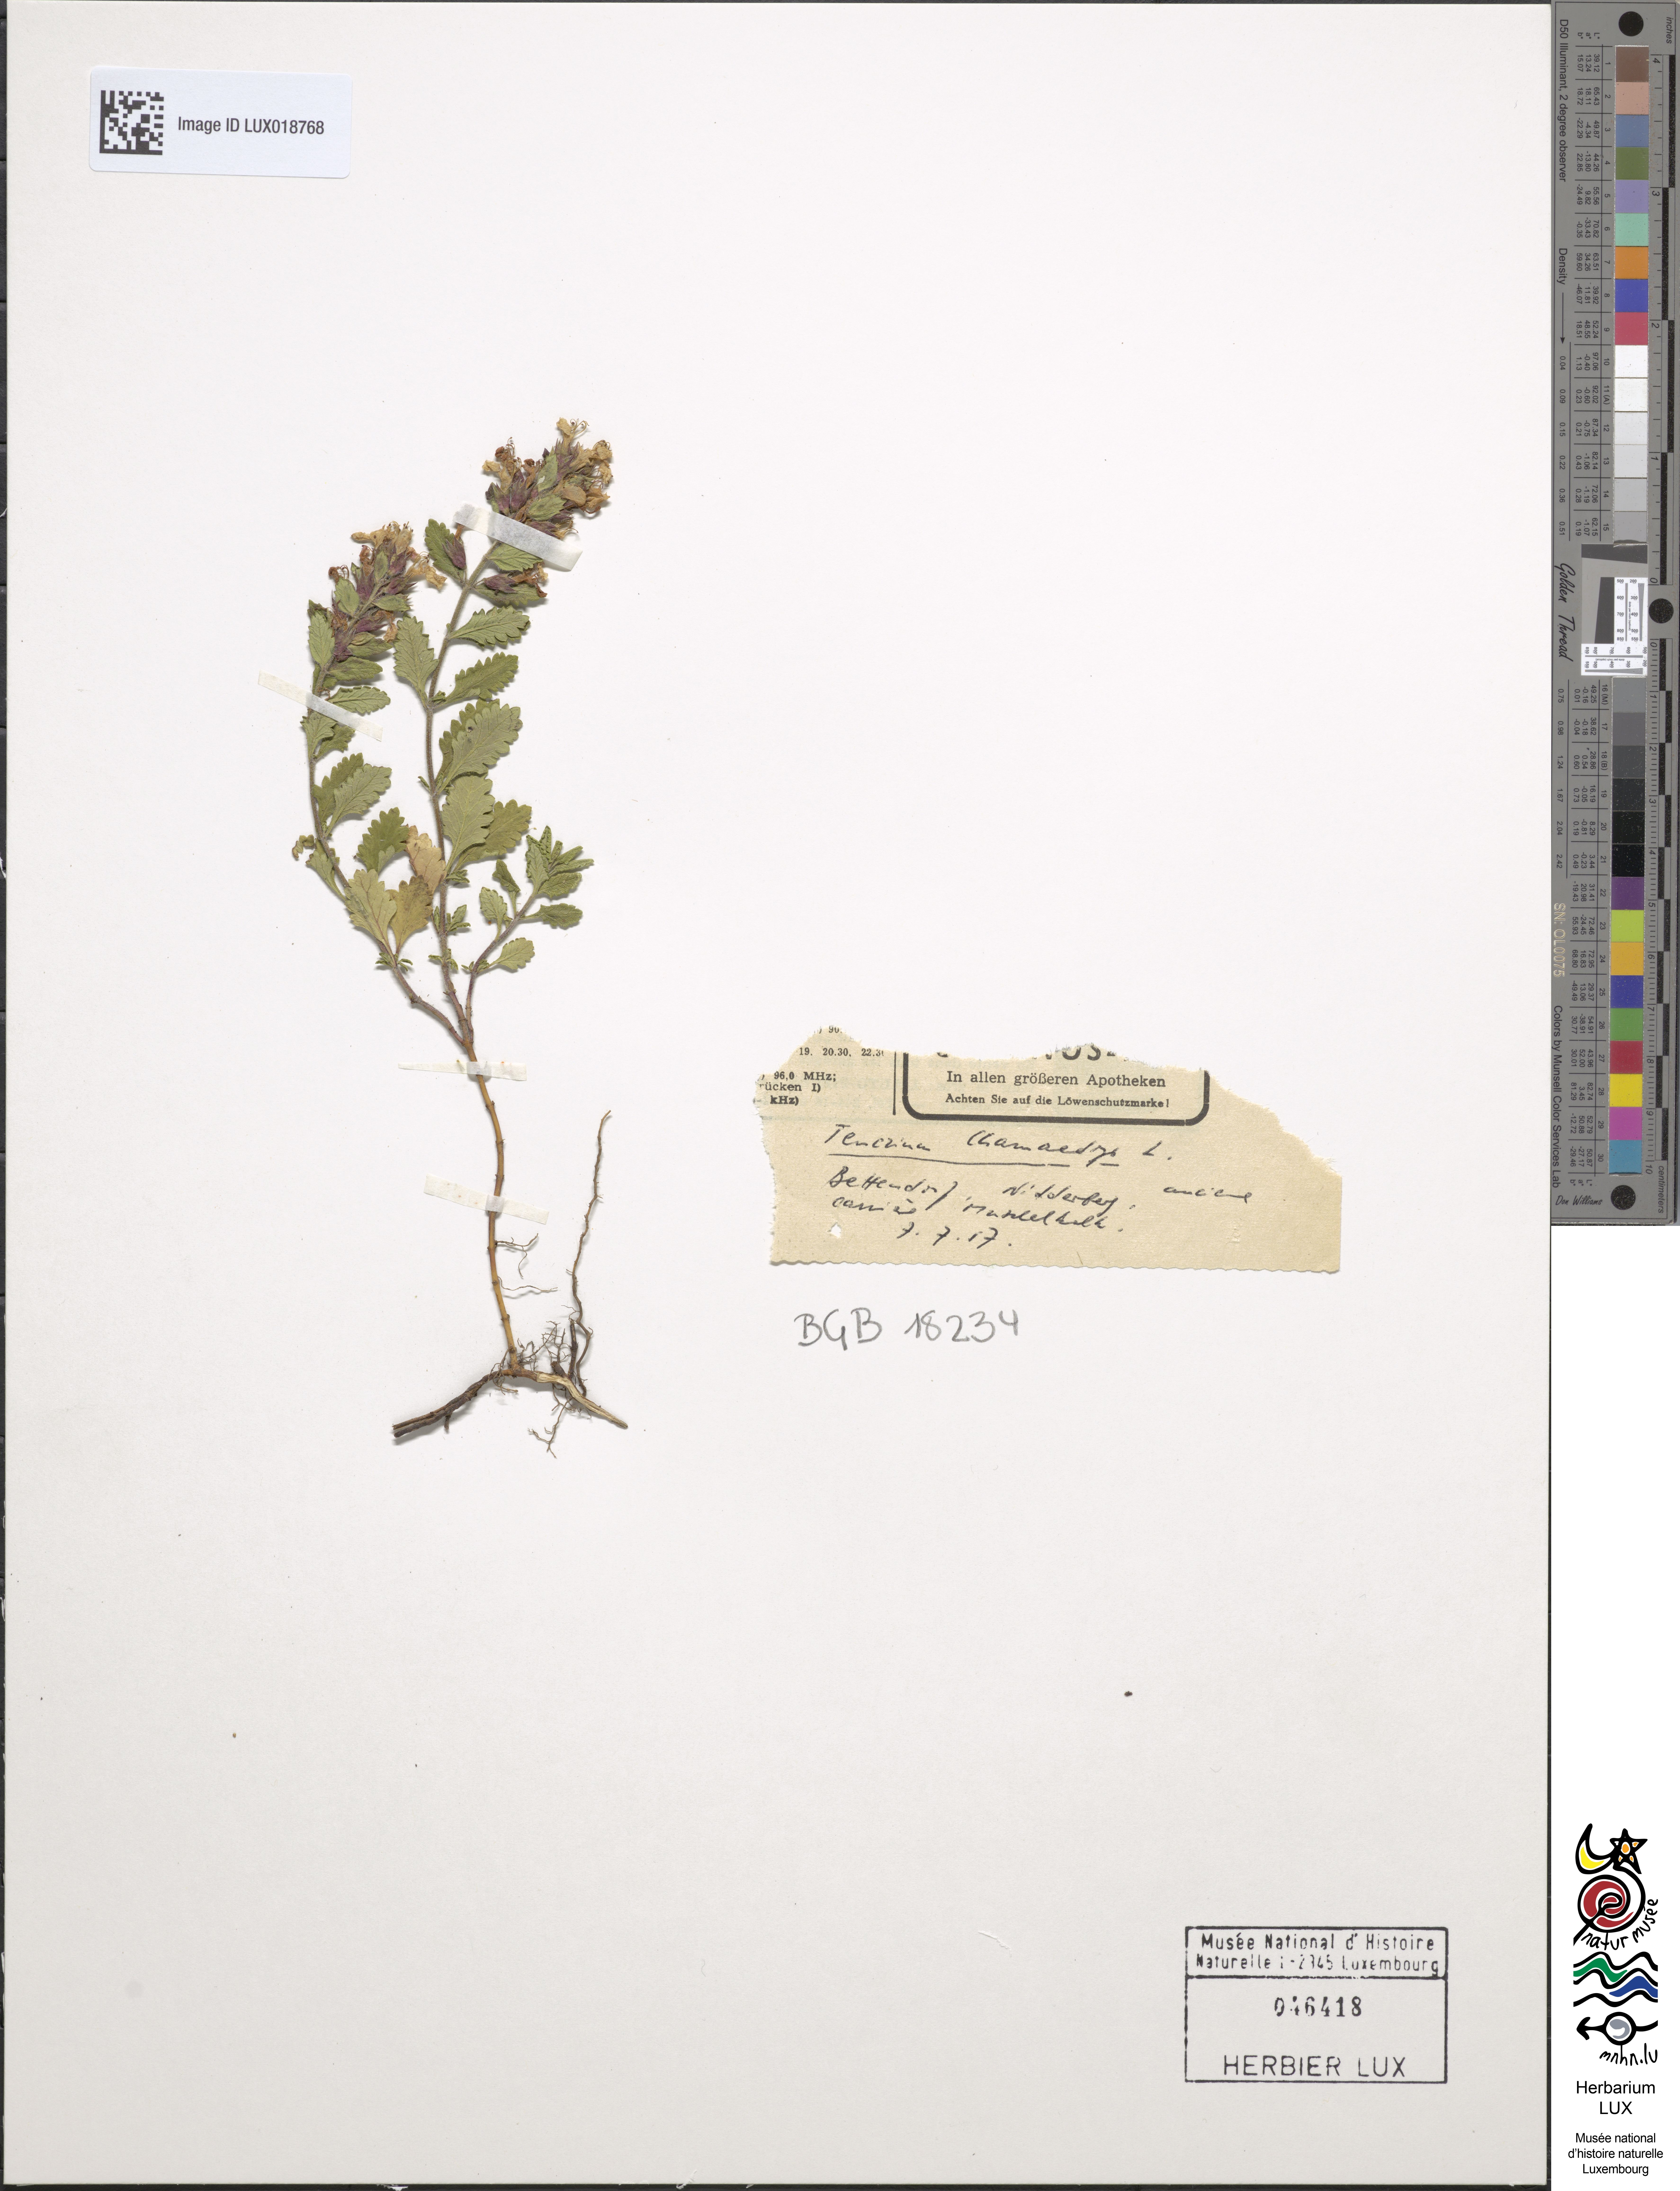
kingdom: Plantae
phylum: Tracheophyta
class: Magnoliopsida
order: Lamiales
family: Lamiaceae
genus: Teucrium
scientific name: Teucrium chamaedrys
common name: Wall germander
